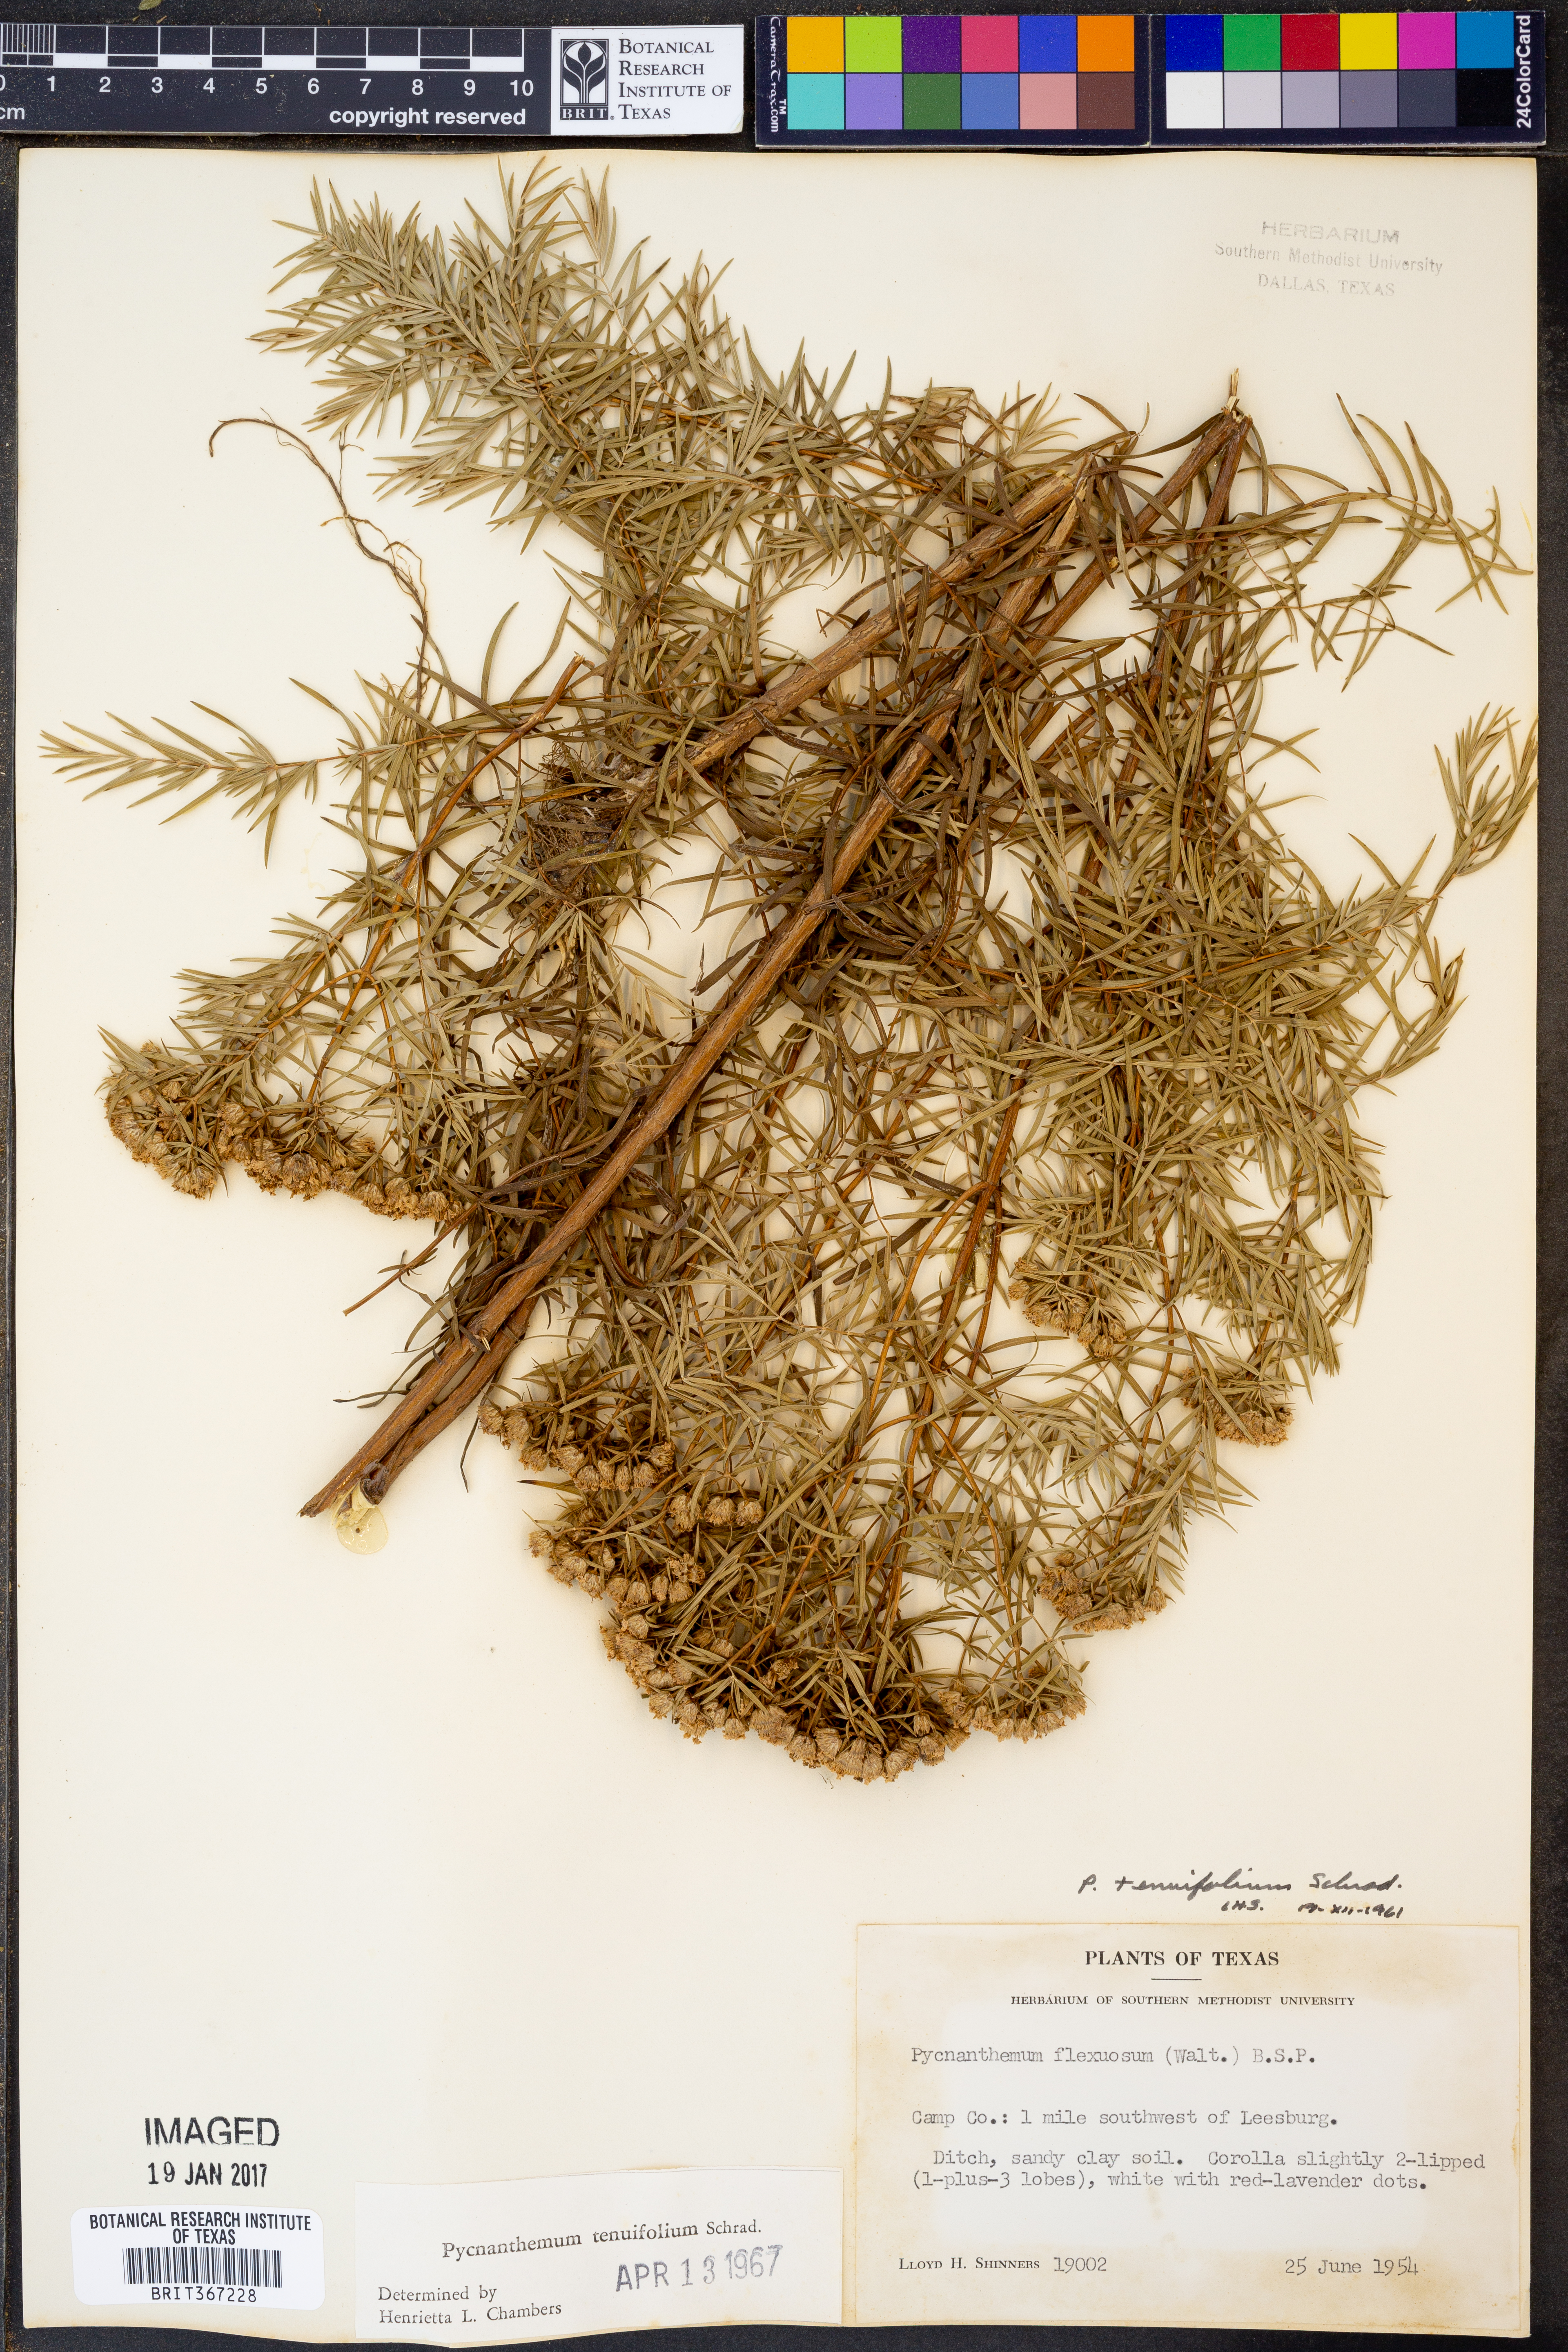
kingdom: Plantae
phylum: Tracheophyta
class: Magnoliopsida
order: Lamiales
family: Lamiaceae
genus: Pycnanthemum
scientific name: Pycnanthemum tenuifolium
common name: Narrow-leaf mountain-mint
